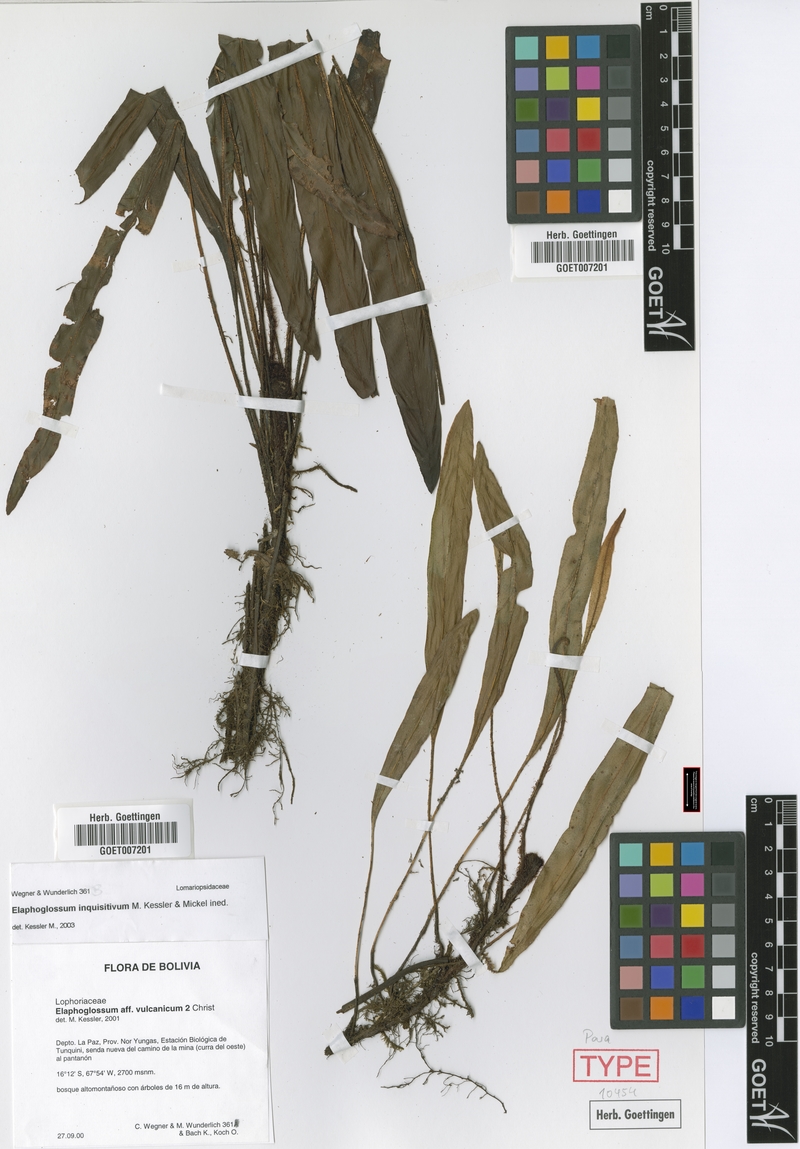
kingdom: Plantae
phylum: Tracheophyta
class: Polypodiopsida
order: Polypodiales
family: Dryopteridaceae
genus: Elaphoglossum
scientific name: Elaphoglossum inquisitivum
